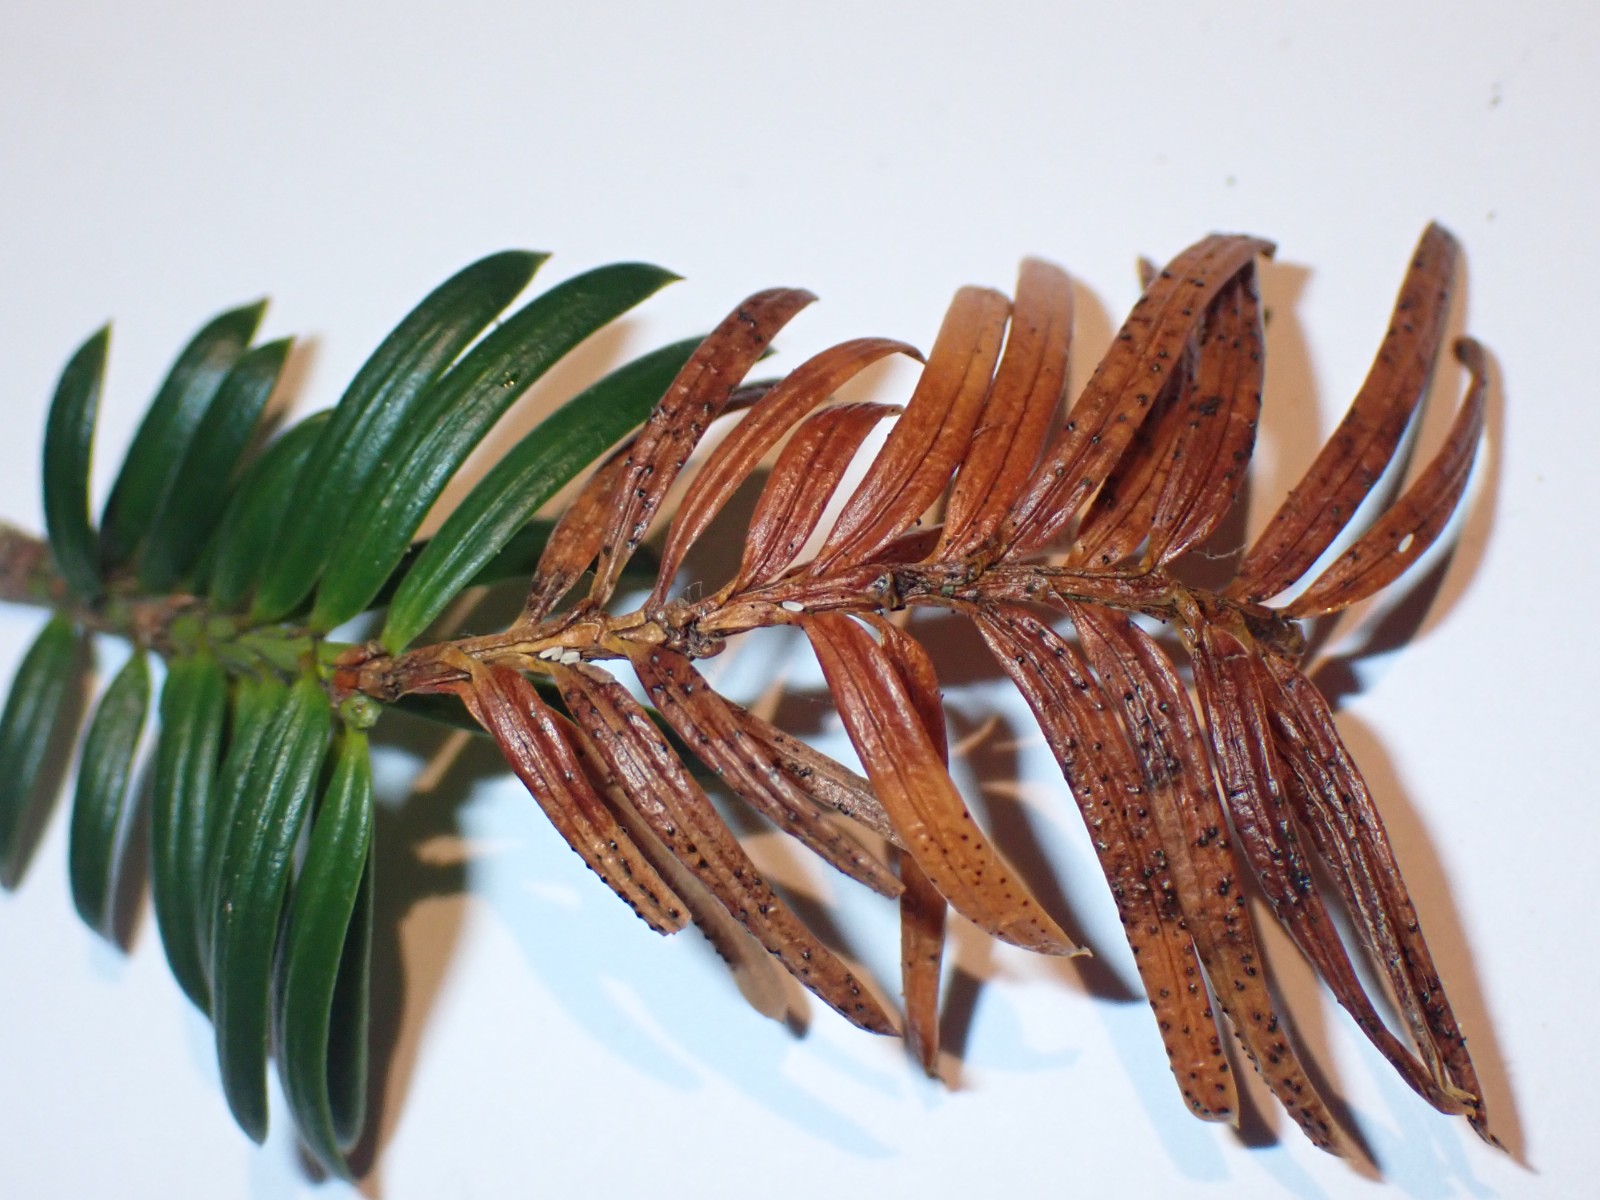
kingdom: Fungi
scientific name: Fungi
